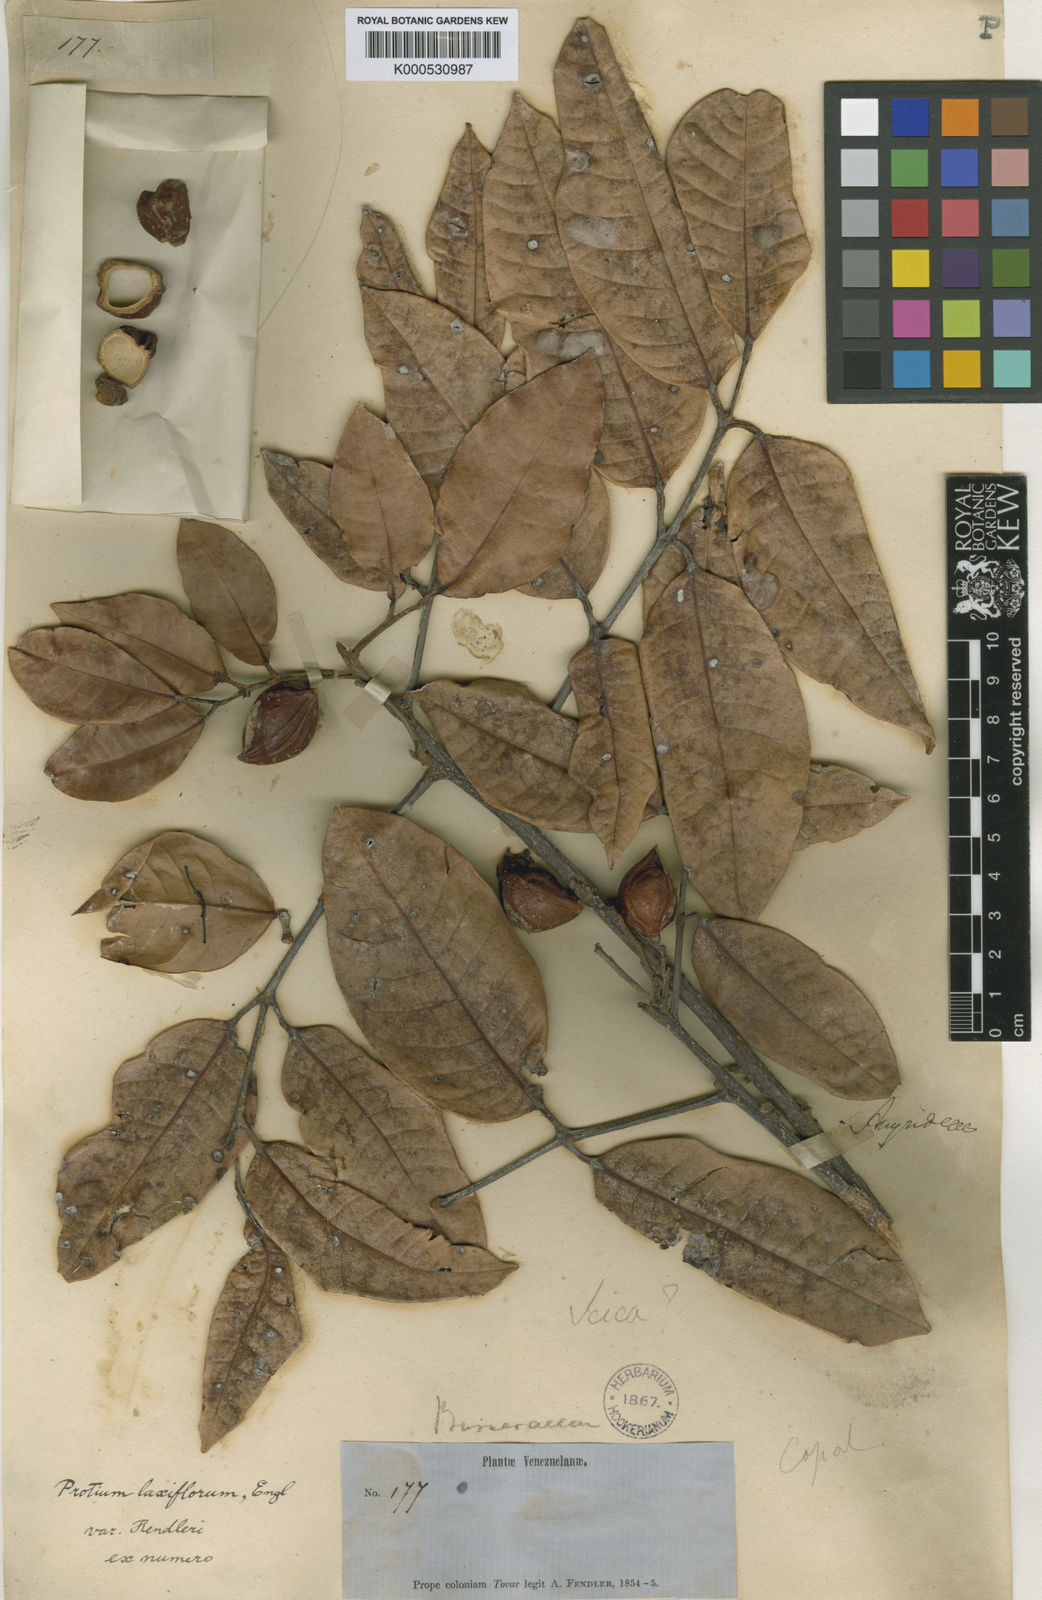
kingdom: Plantae
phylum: Tracheophyta
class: Magnoliopsida
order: Sapindales
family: Burseraceae
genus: Protium
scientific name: Protium tovarense
